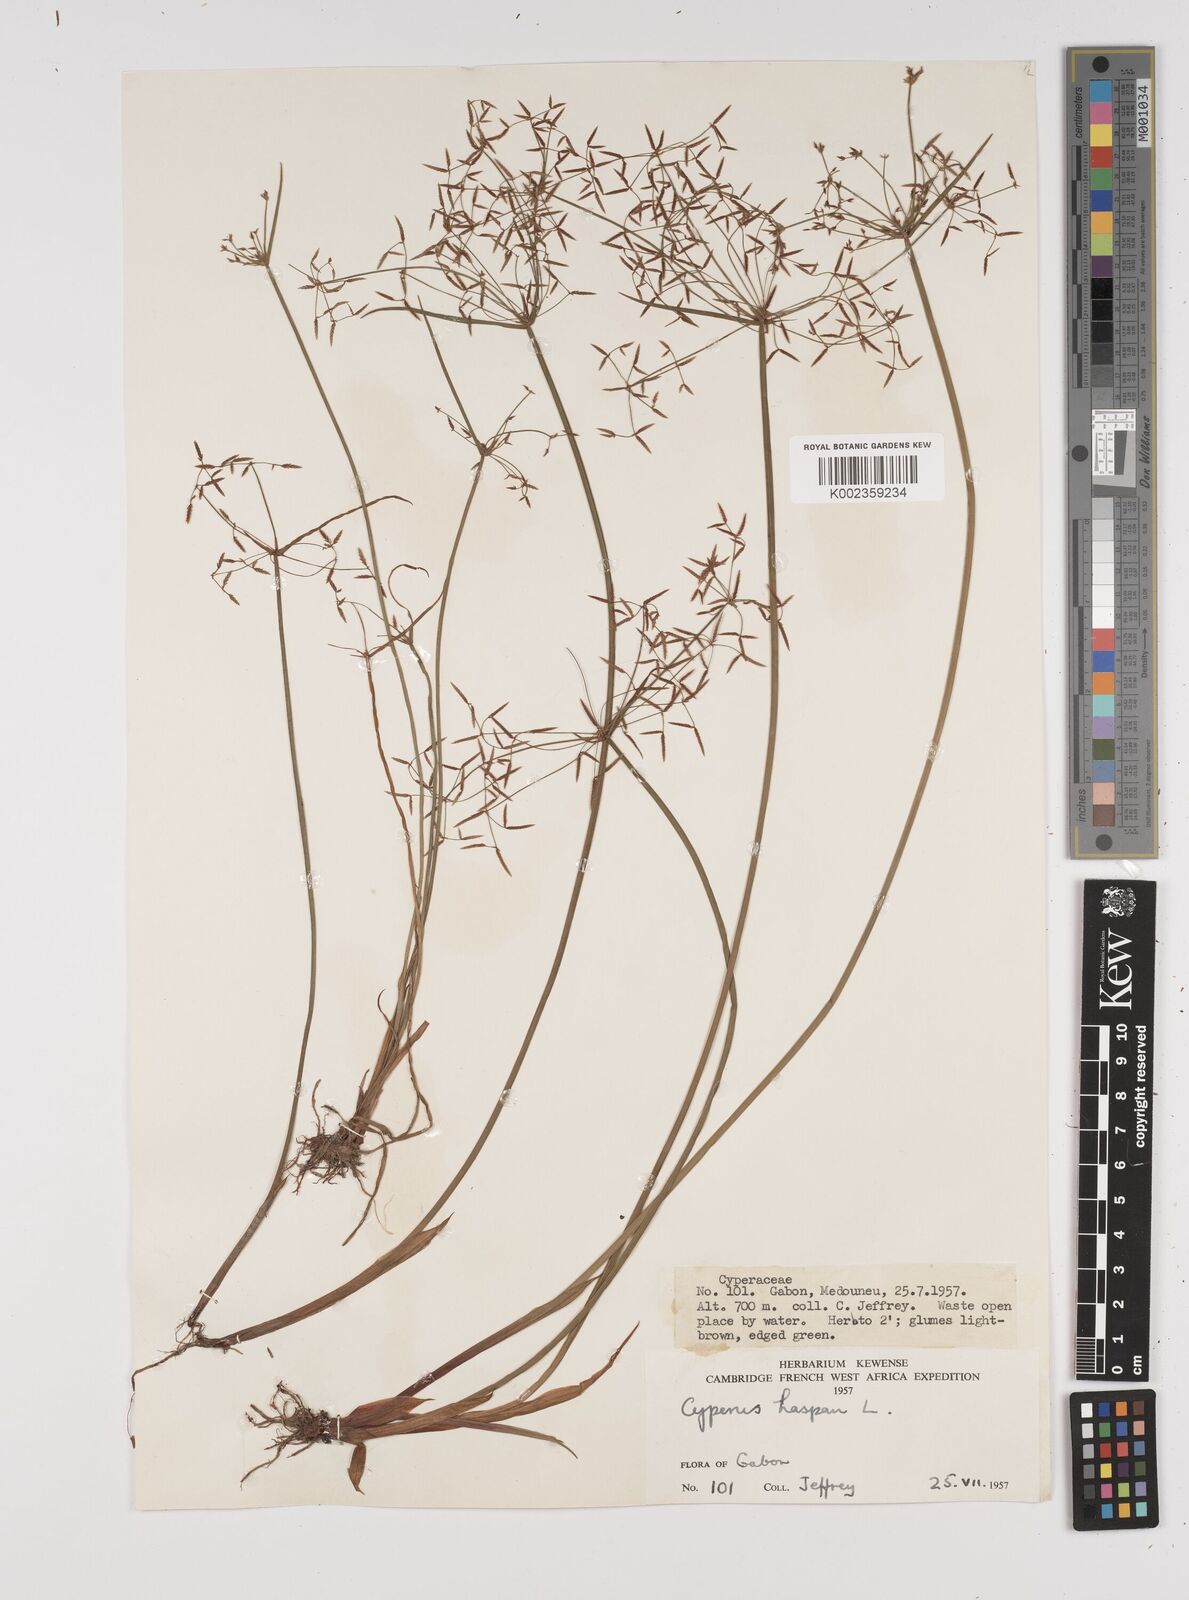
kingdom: Plantae
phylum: Tracheophyta
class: Liliopsida
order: Poales
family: Cyperaceae
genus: Cyperus
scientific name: Cyperus haspan
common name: Haspan flatsedge
